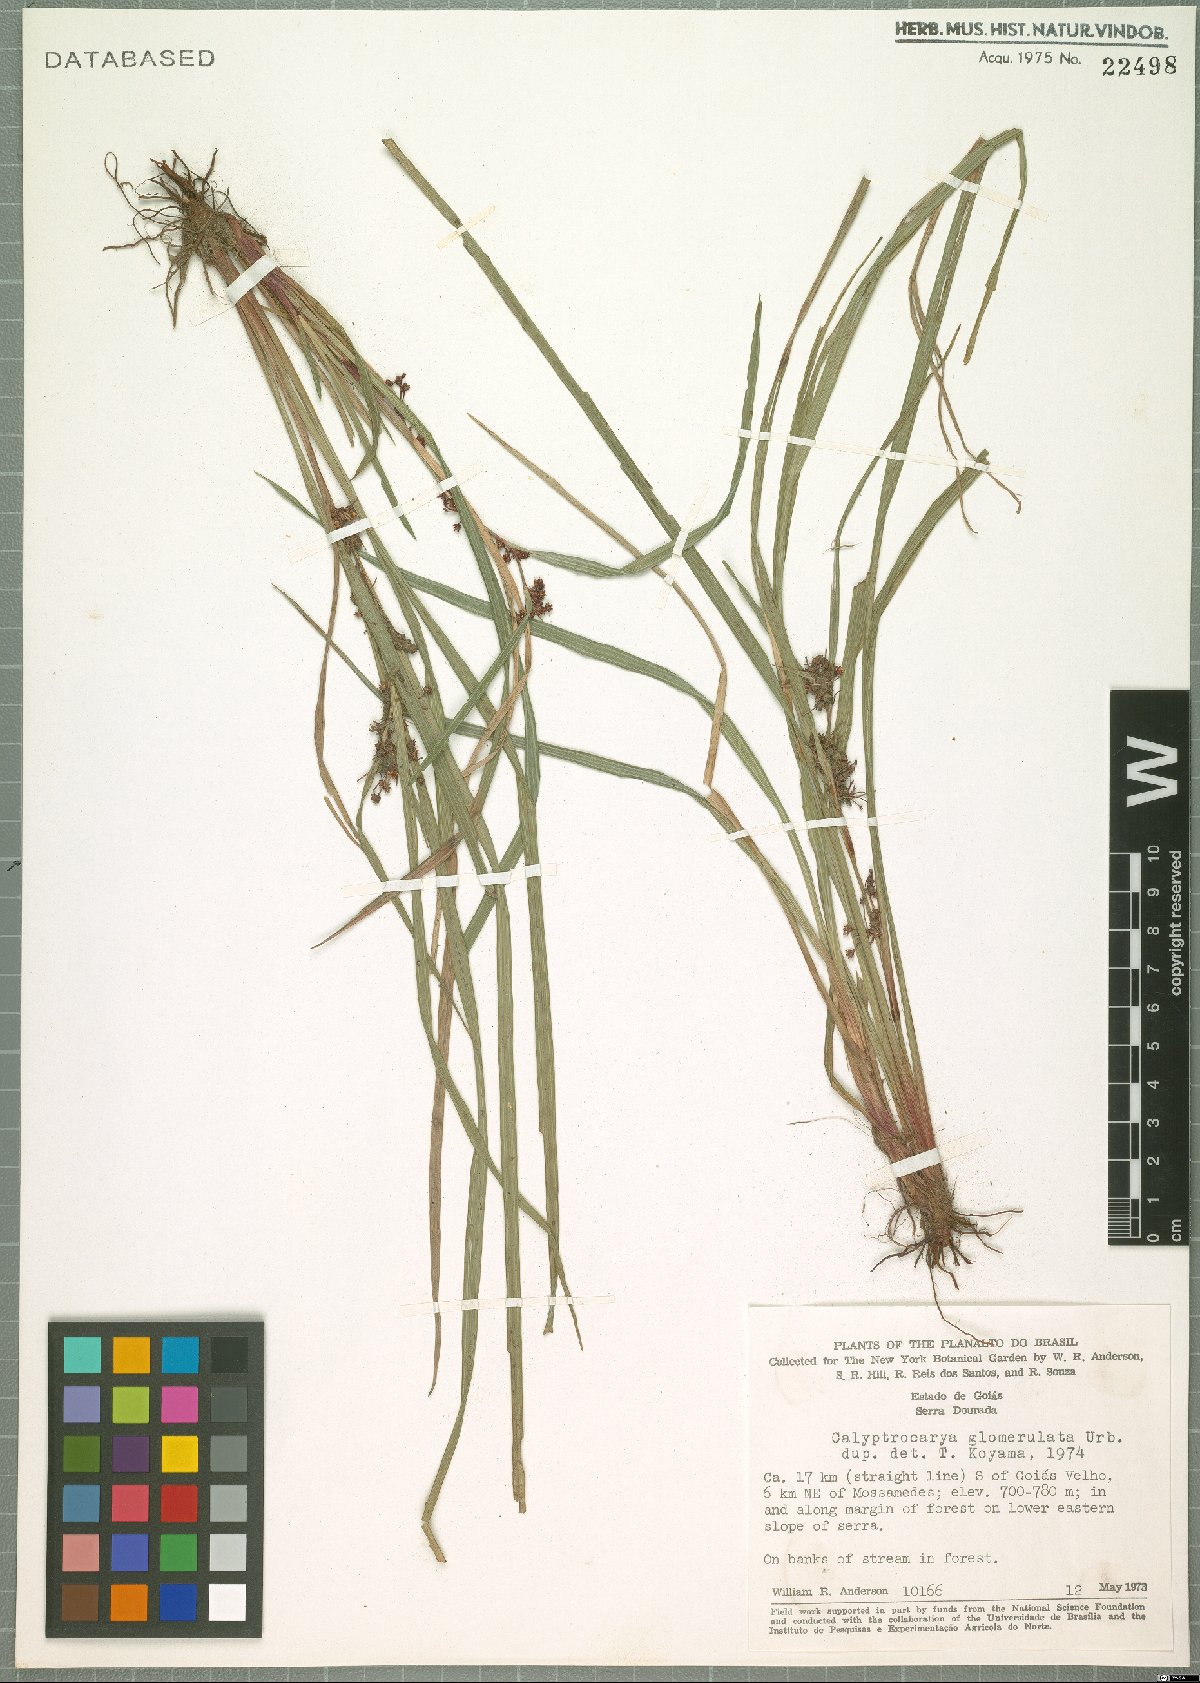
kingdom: Plantae
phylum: Tracheophyta
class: Liliopsida
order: Poales
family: Cyperaceae
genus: Calyptrocarya
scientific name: Calyptrocarya glomerulata
